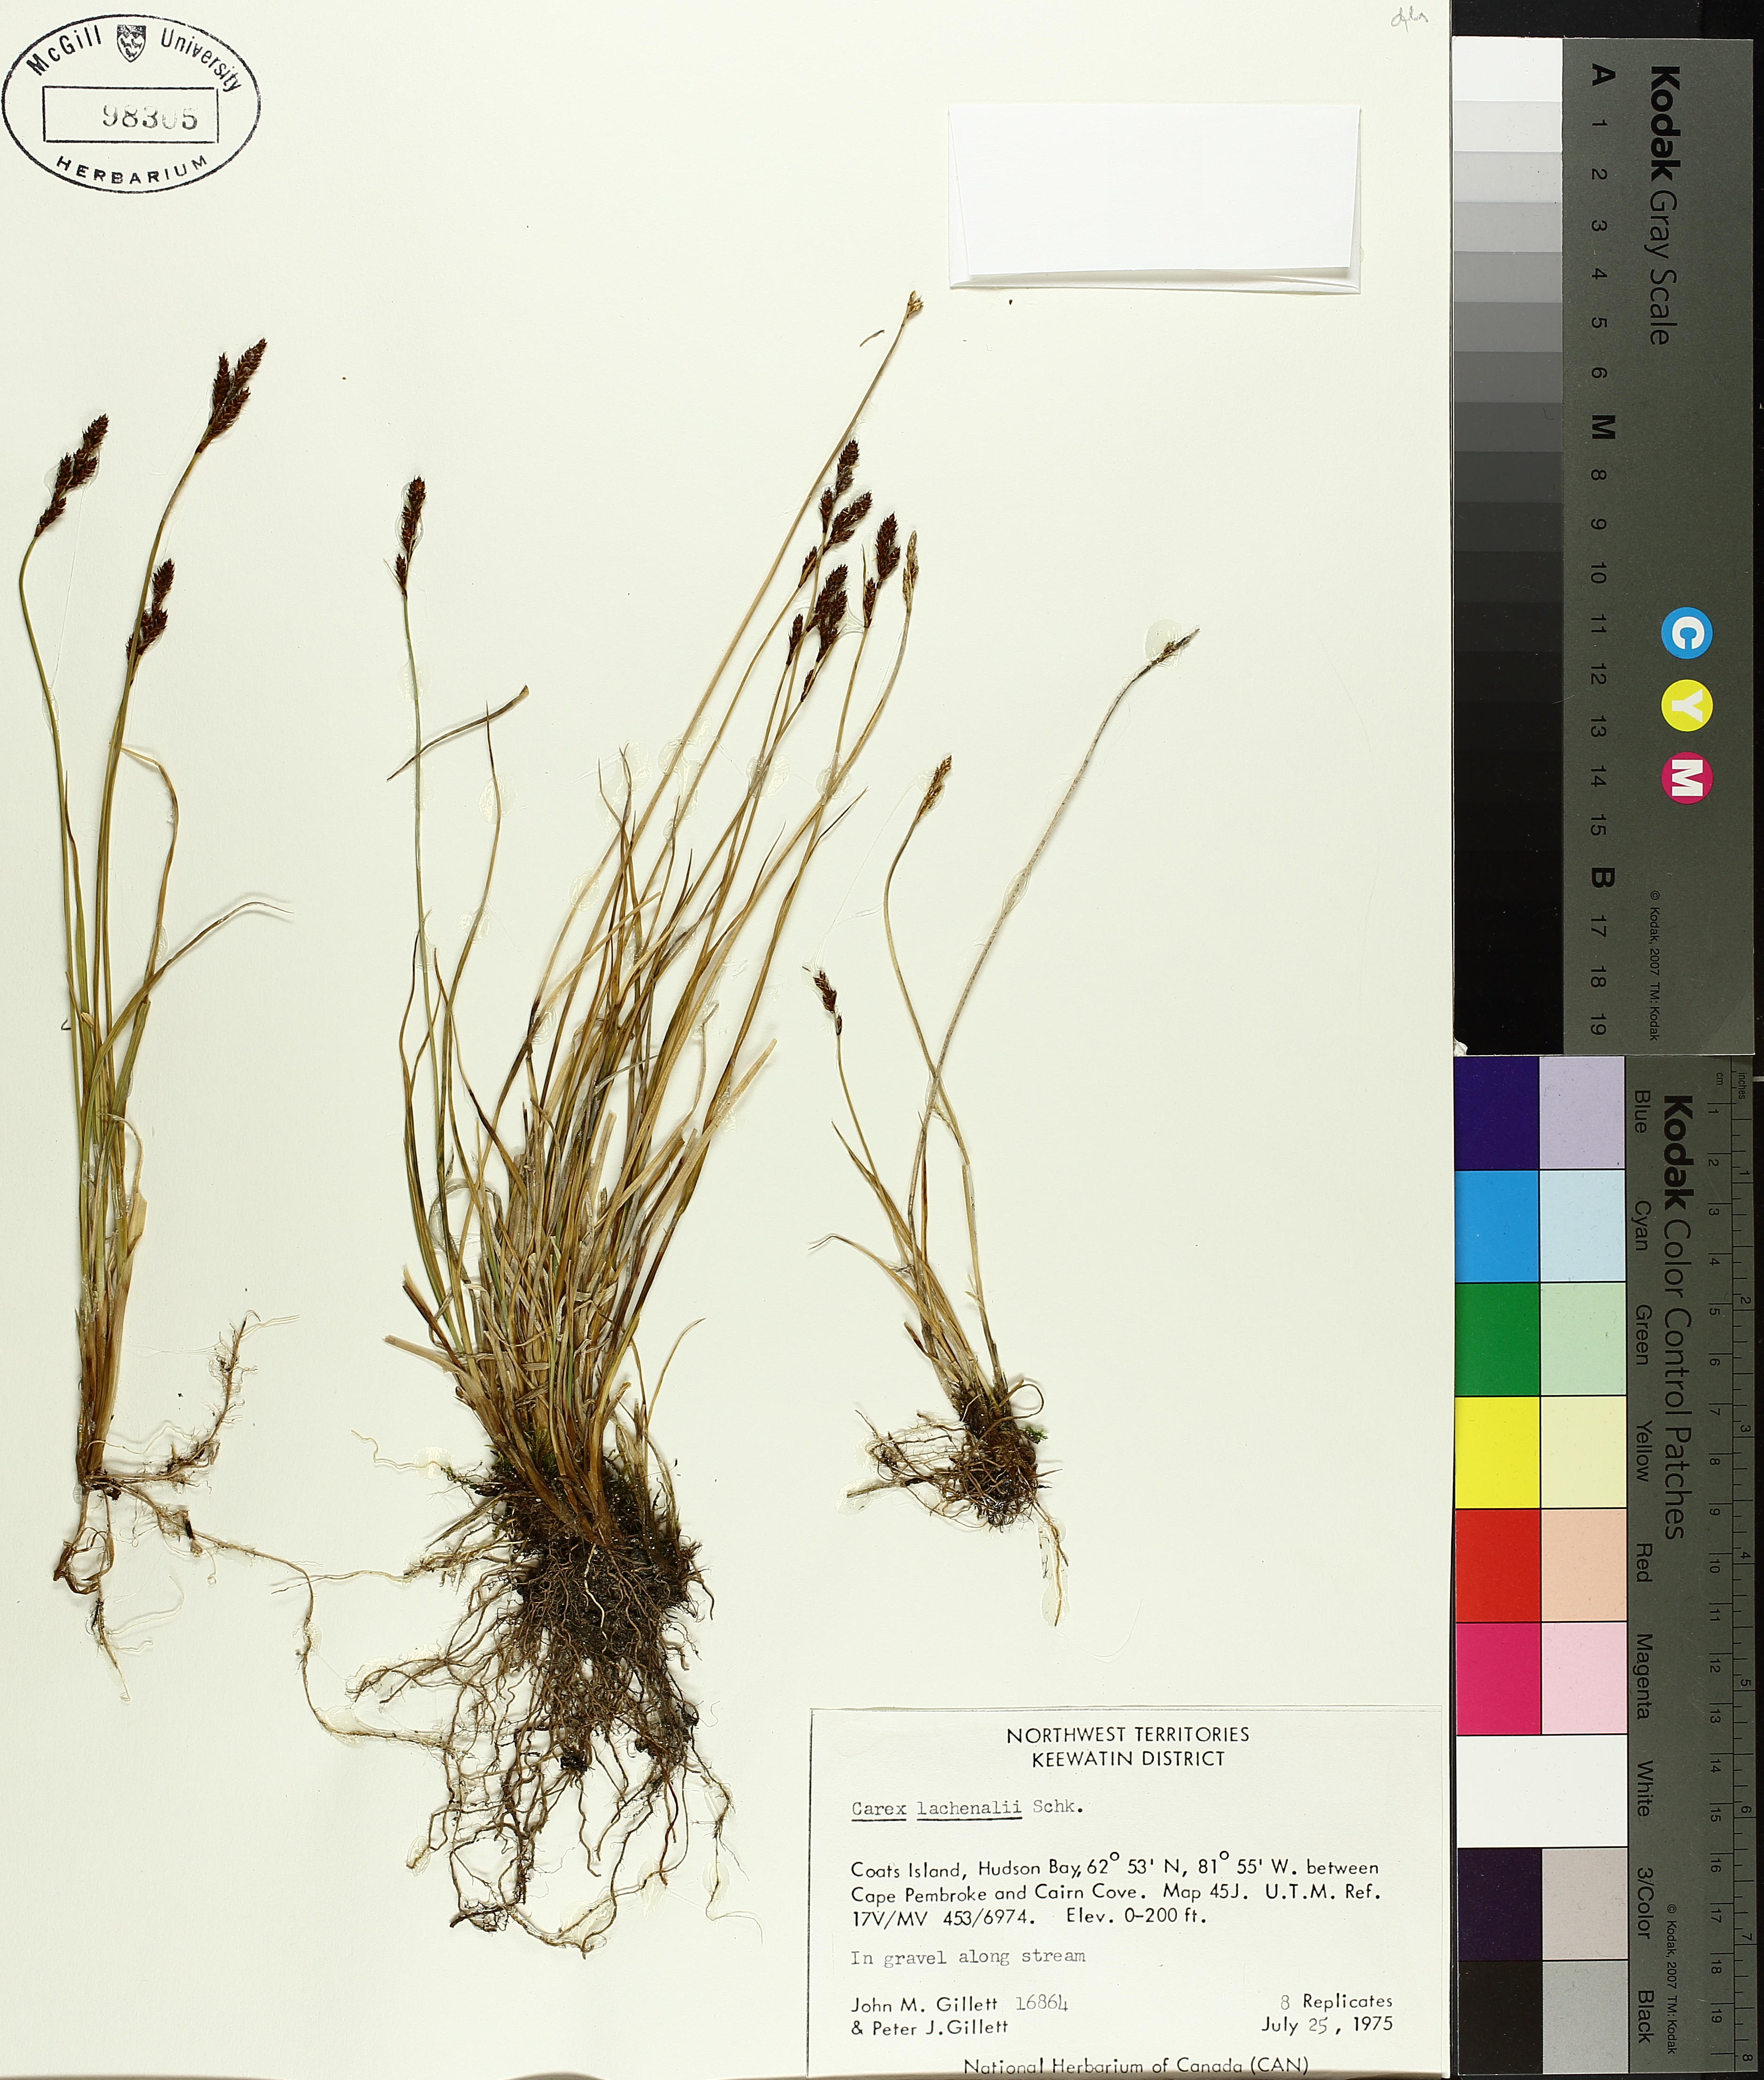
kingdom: Plantae
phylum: Tracheophyta
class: Liliopsida
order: Poales
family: Cyperaceae
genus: Carex
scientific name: Carex lachenalii
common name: Hare's-foot sedge
